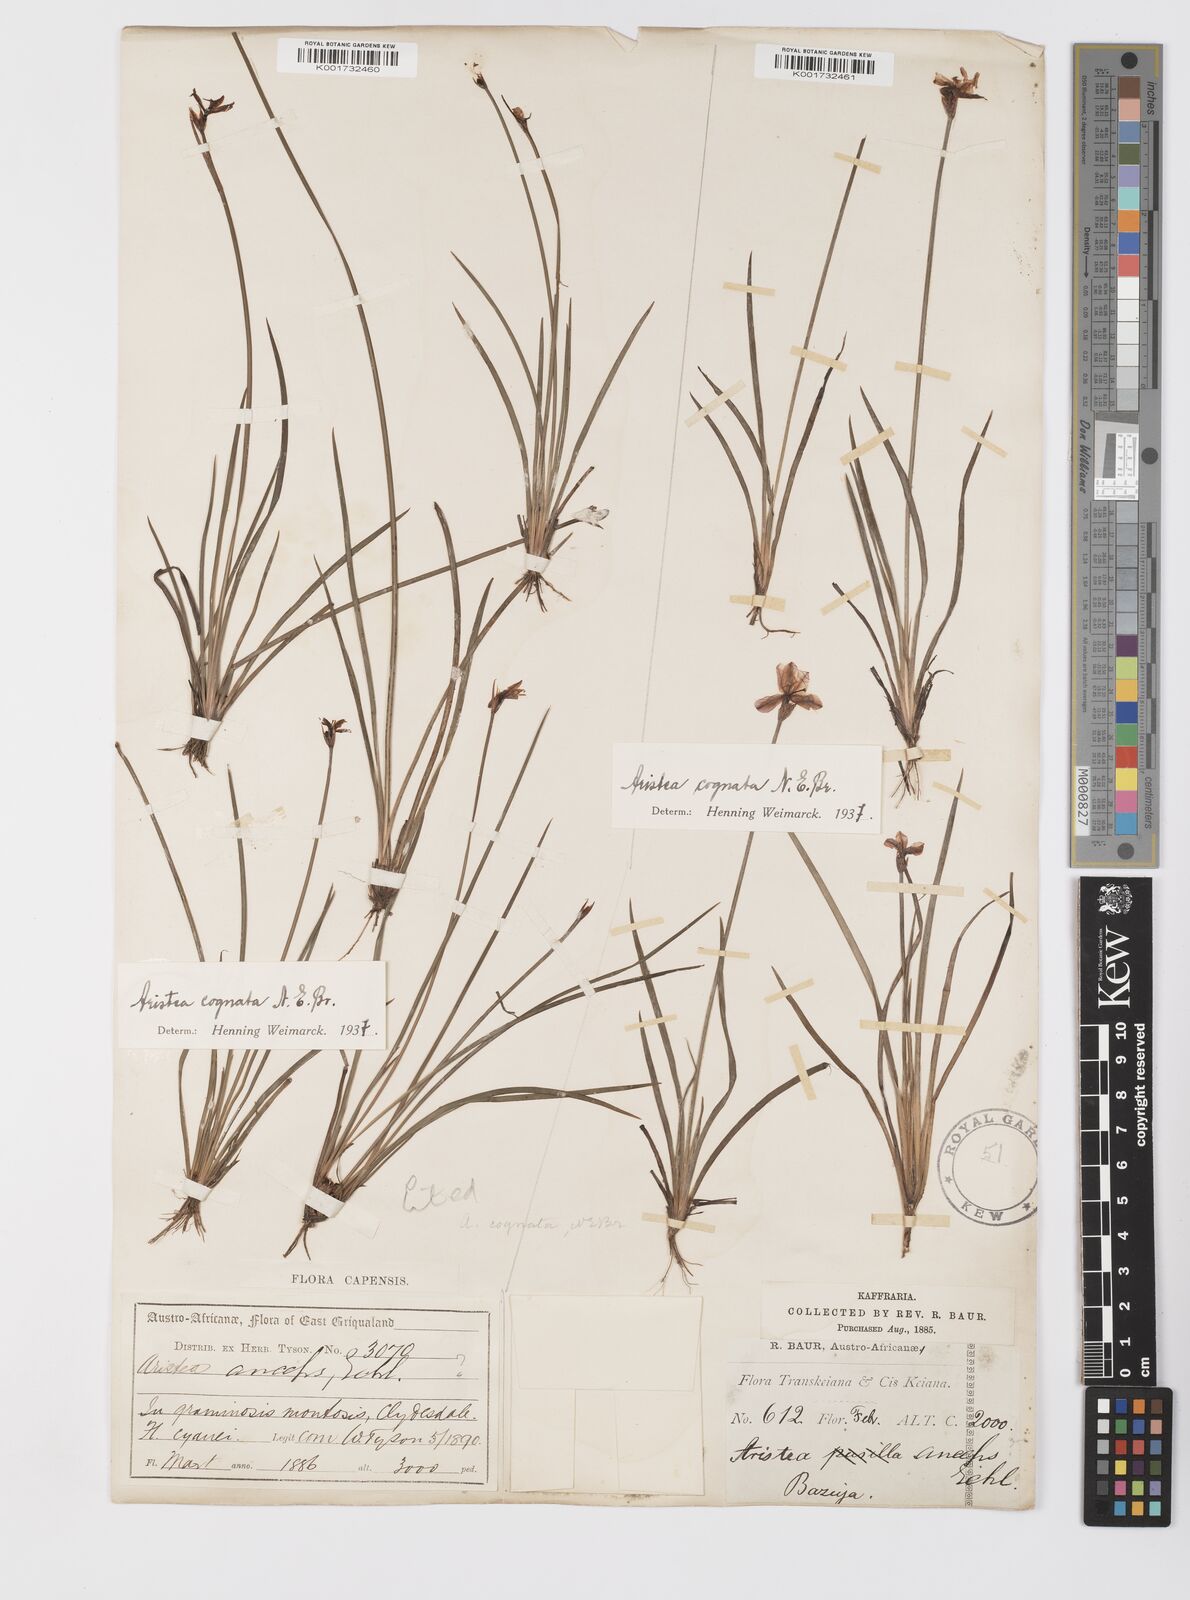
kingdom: Plantae
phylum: Tracheophyta
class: Liliopsida
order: Asparagales
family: Iridaceae
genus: Aristea
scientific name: Aristea abyssinica
